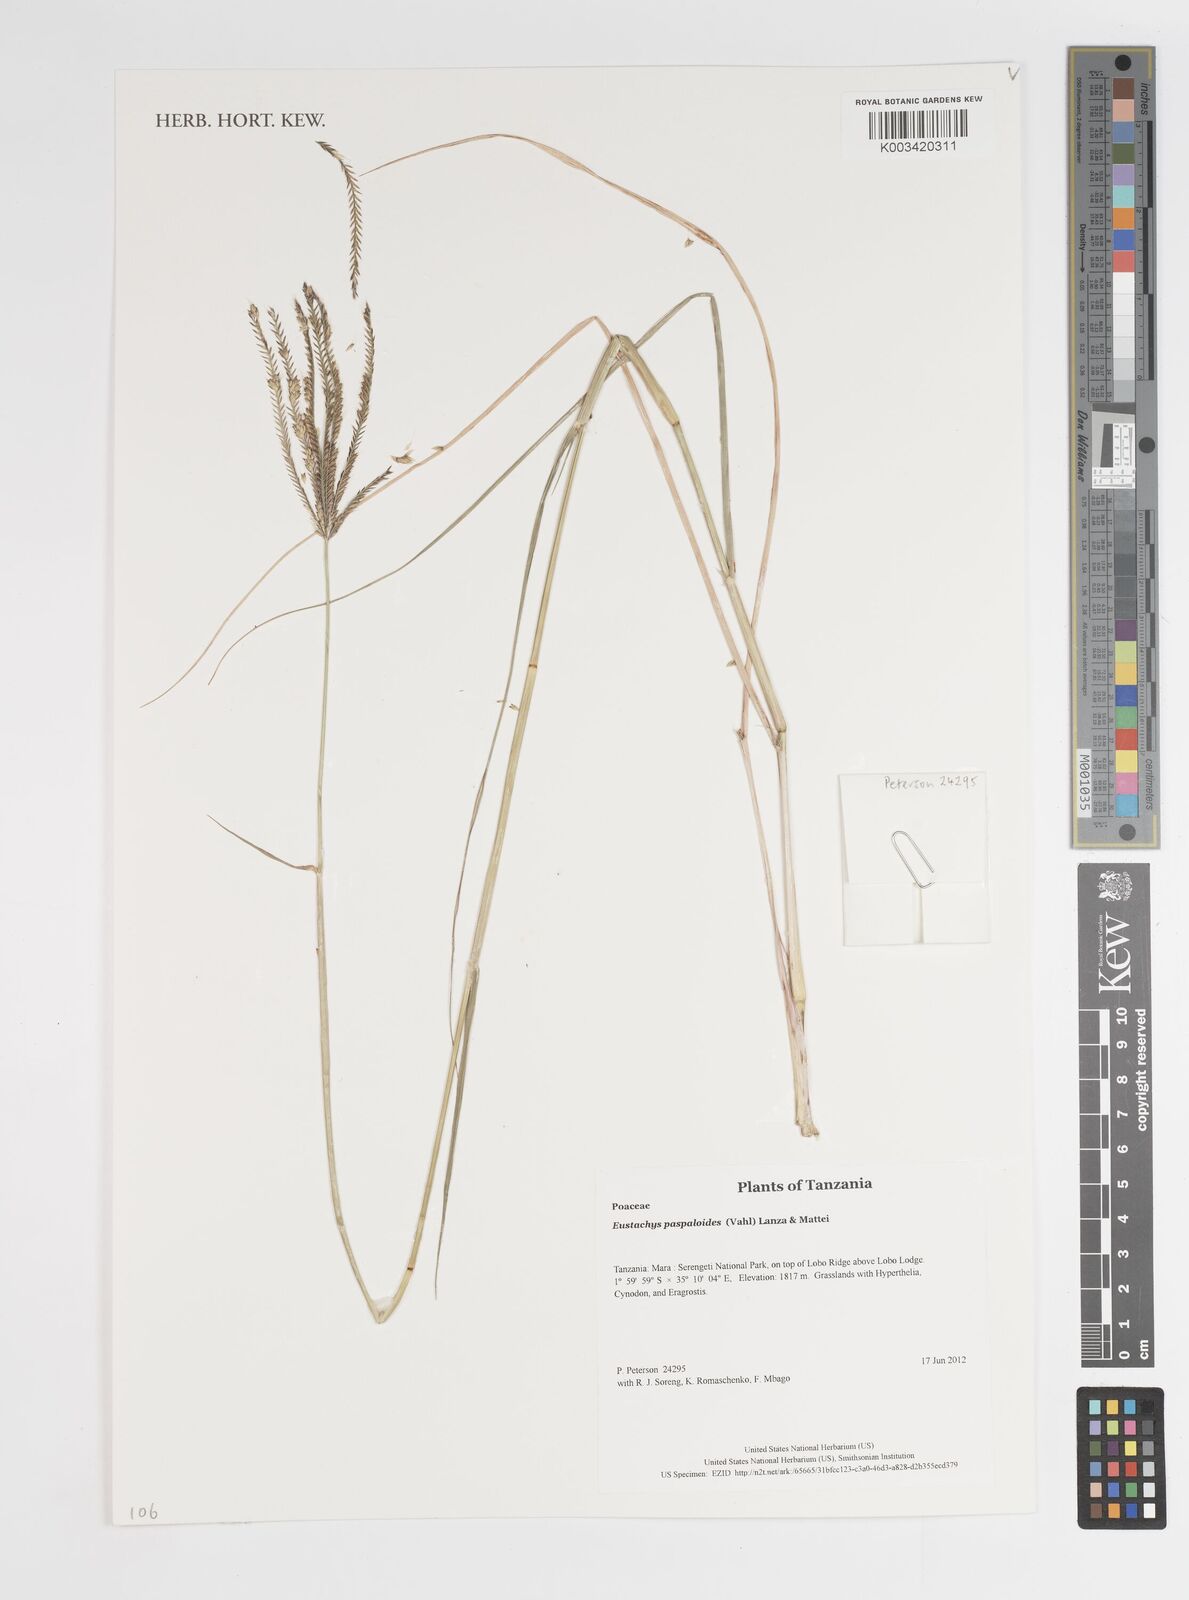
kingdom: Plantae
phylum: Tracheophyta
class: Liliopsida
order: Poales
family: Poaceae
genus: Eustachys
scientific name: Eustachys
